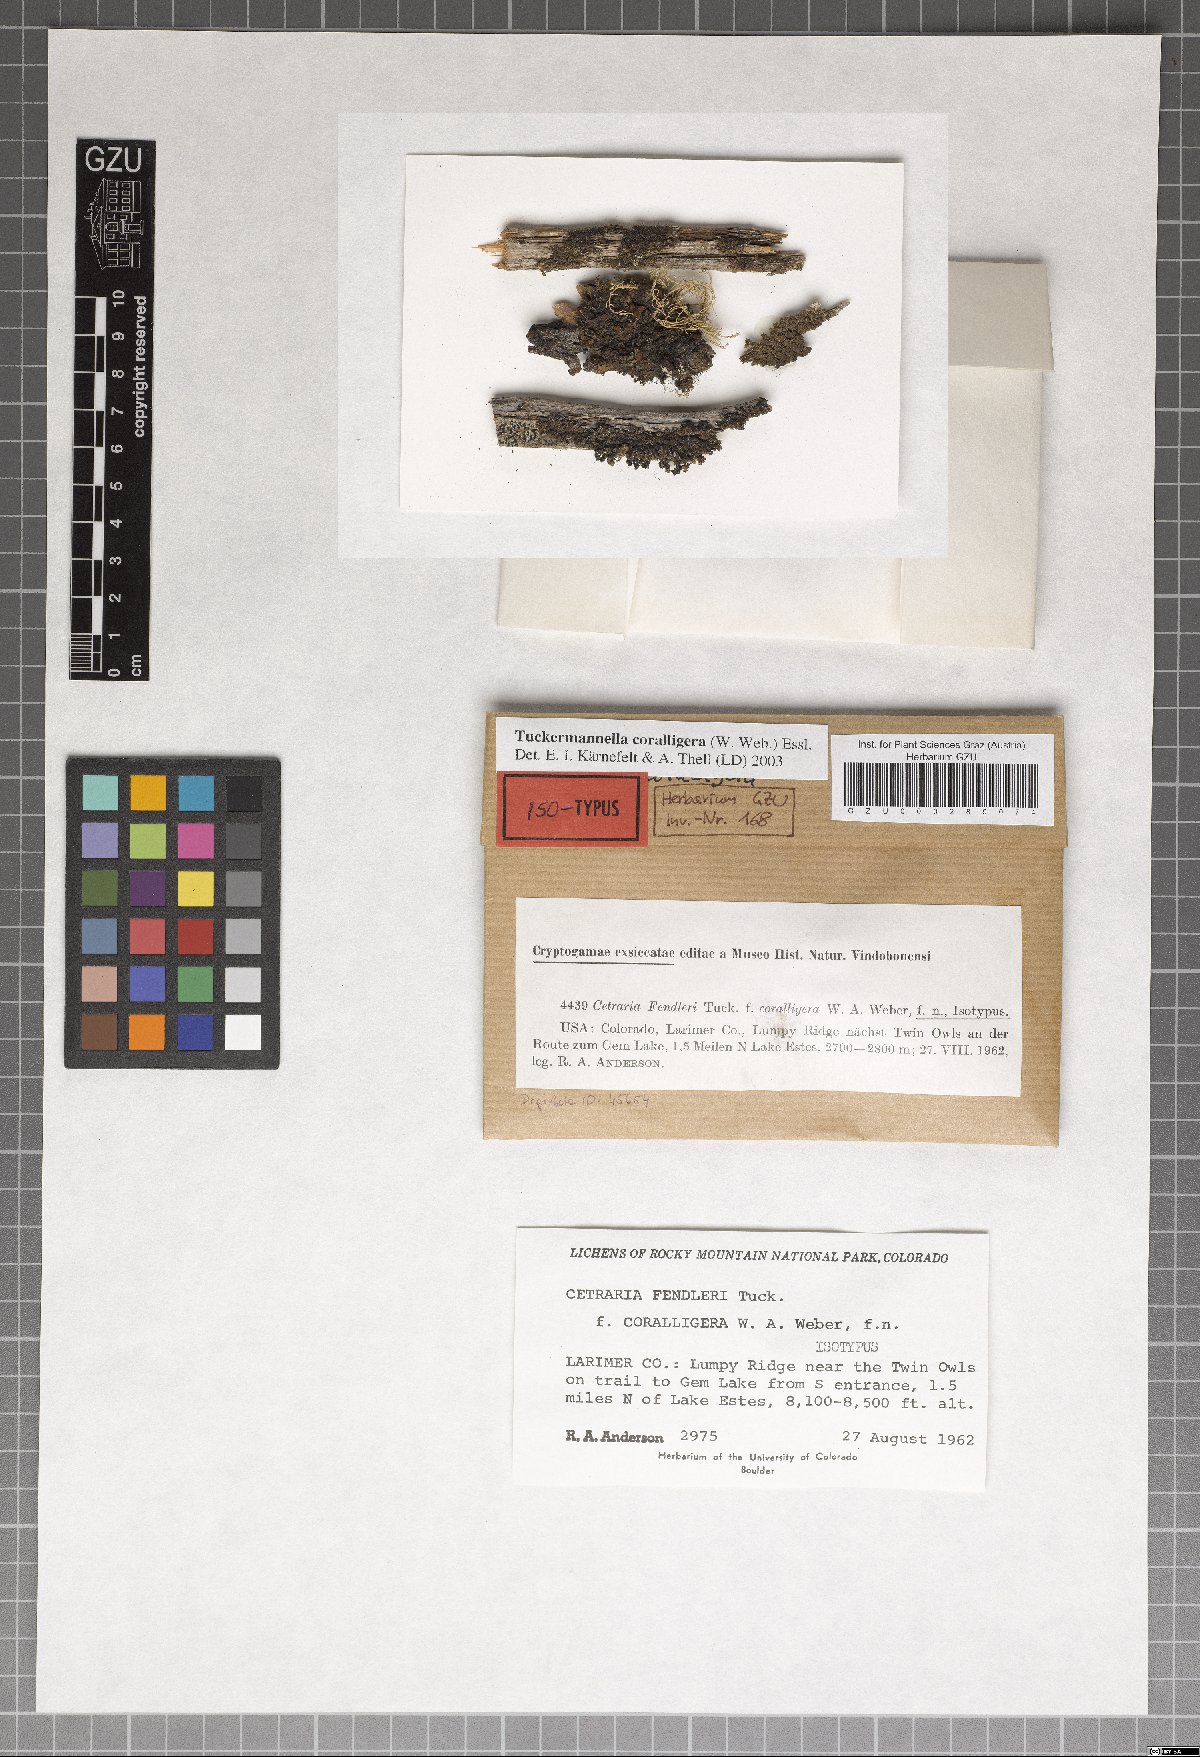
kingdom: Fungi
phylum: Ascomycota
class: Lecanoromycetes
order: Lecanorales
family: Parmeliaceae
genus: Nephromopsis
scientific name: Nephromopsis coralligera
